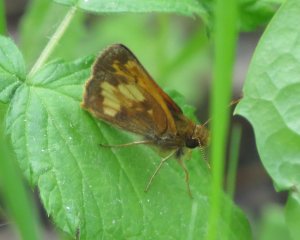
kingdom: Animalia
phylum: Arthropoda
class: Insecta
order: Lepidoptera
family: Hesperiidae
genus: Lon
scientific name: Lon hobomok
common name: Hobomok Skipper
